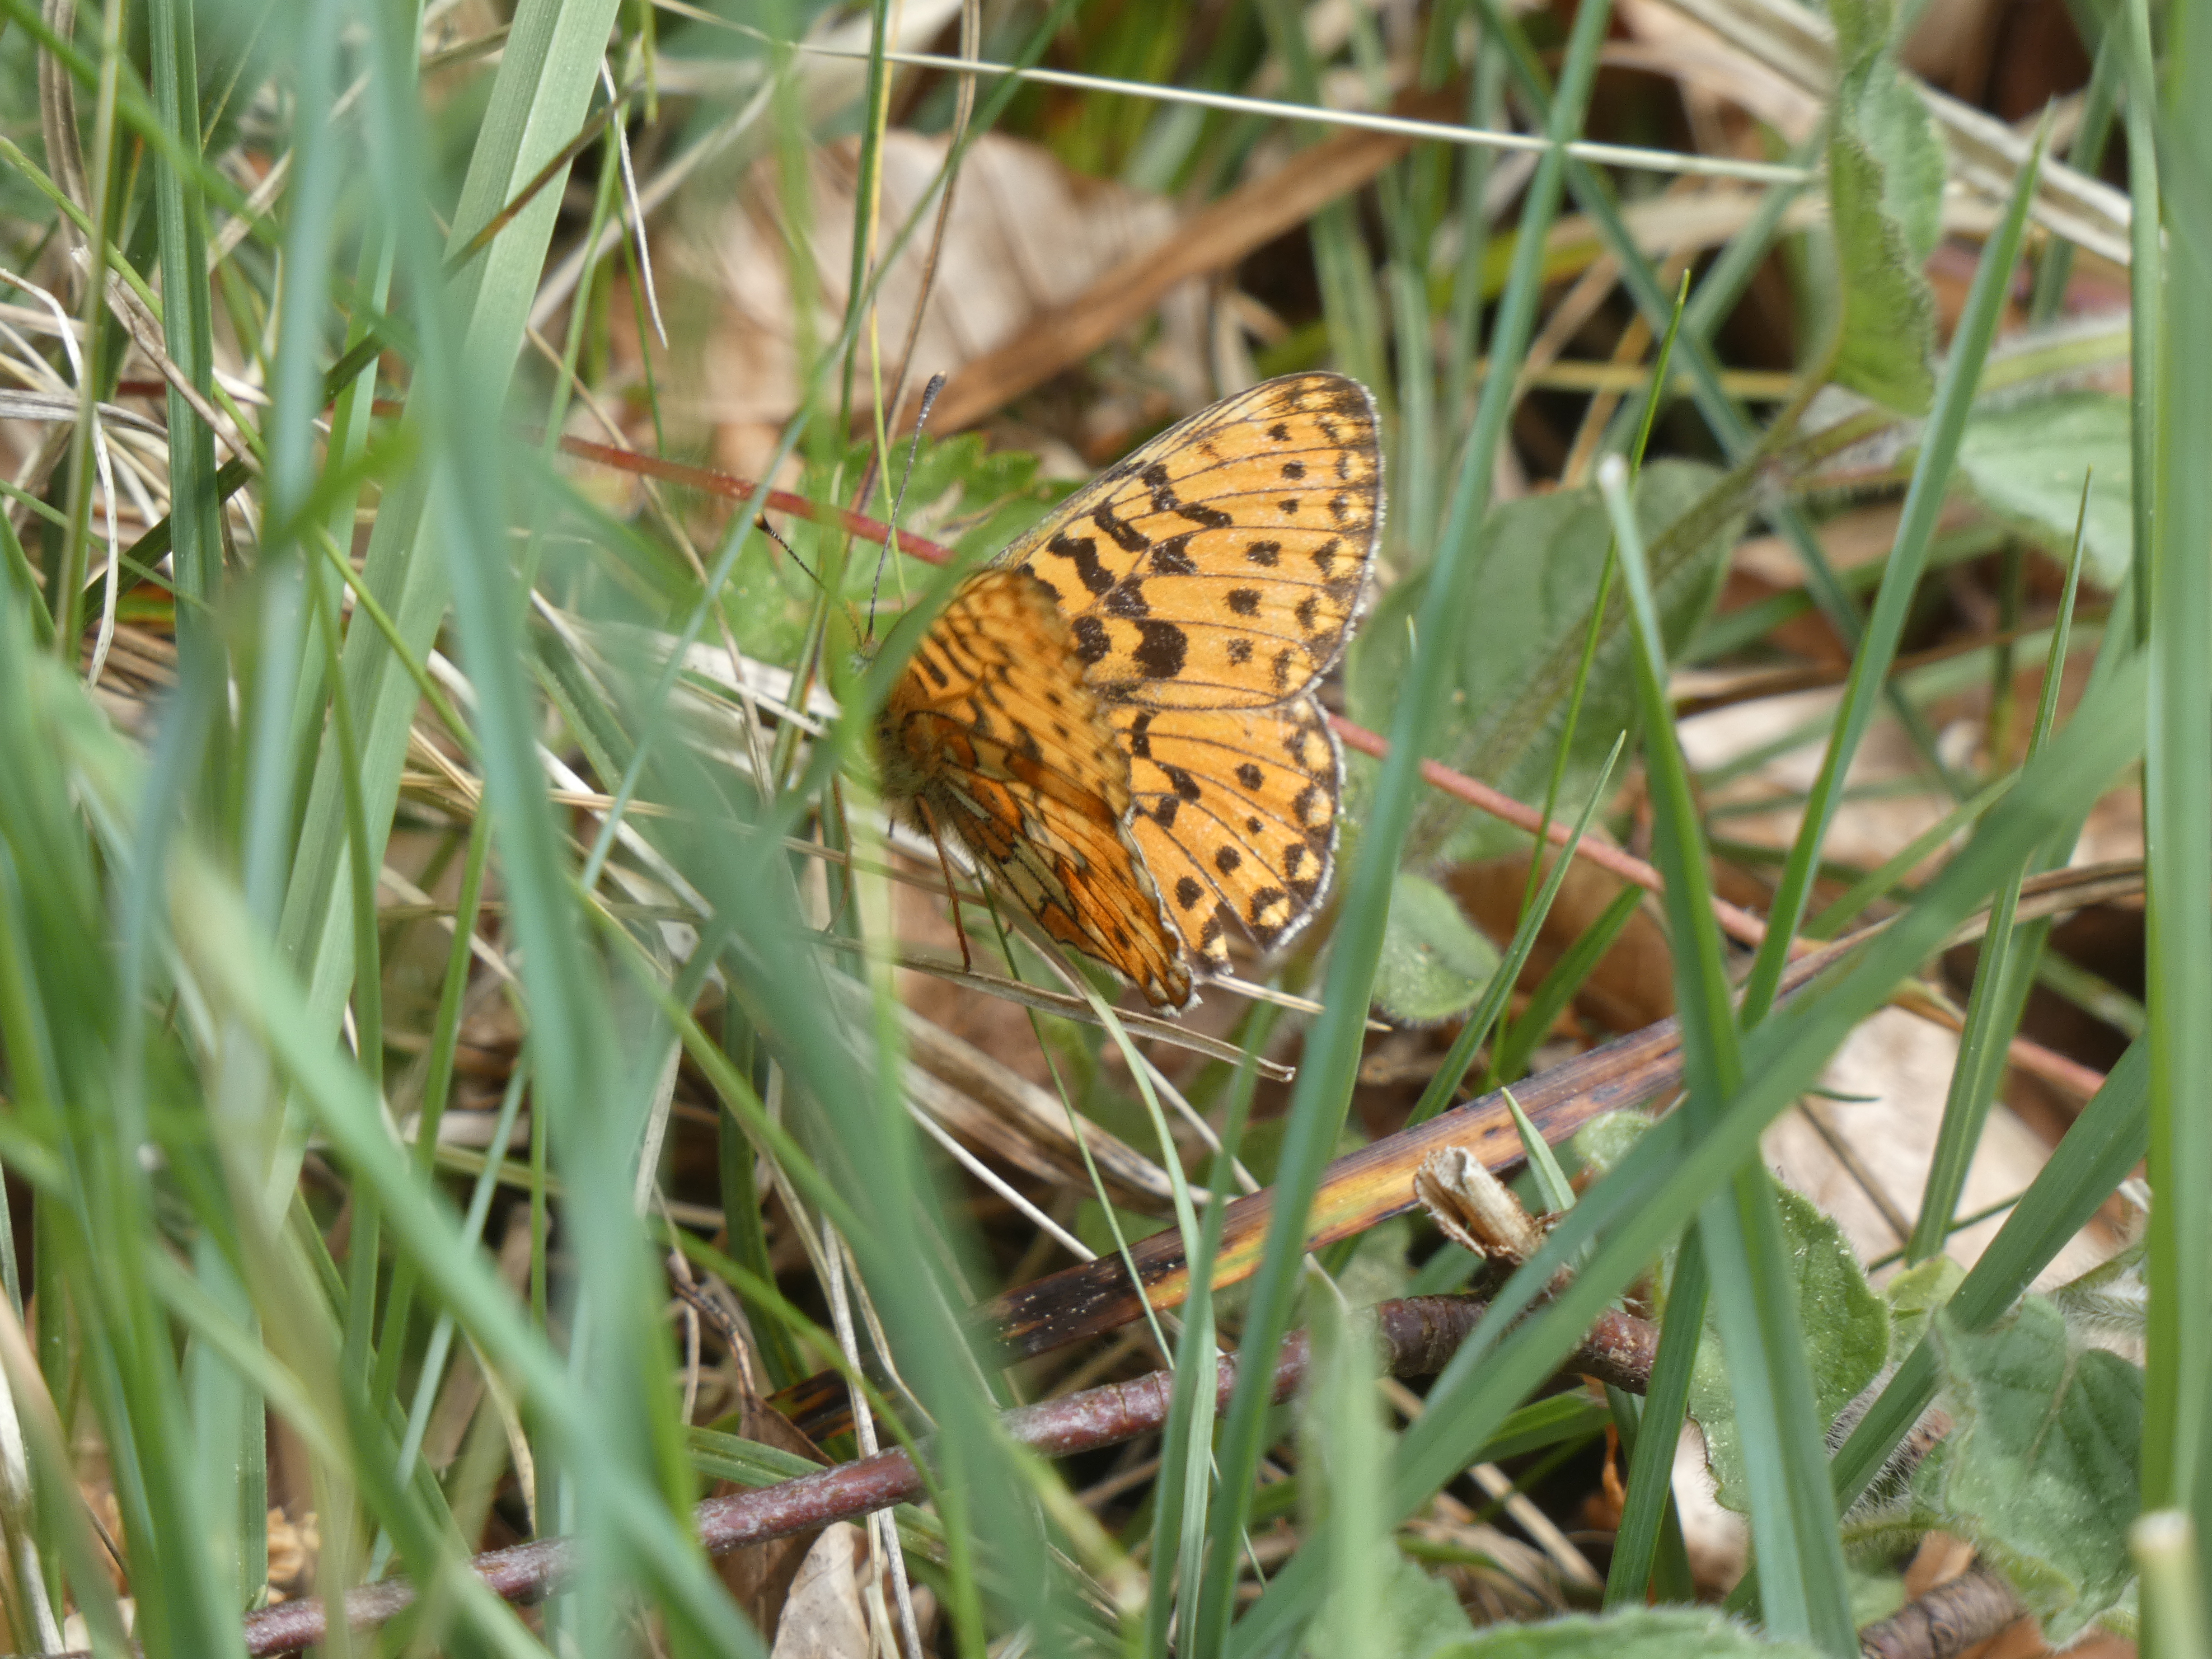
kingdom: Animalia
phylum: Arthropoda
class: Insecta
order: Lepidoptera
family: Nymphalidae
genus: Clossiana
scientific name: Clossiana euphrosyne
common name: Rødlig perlemorsommerfugl
